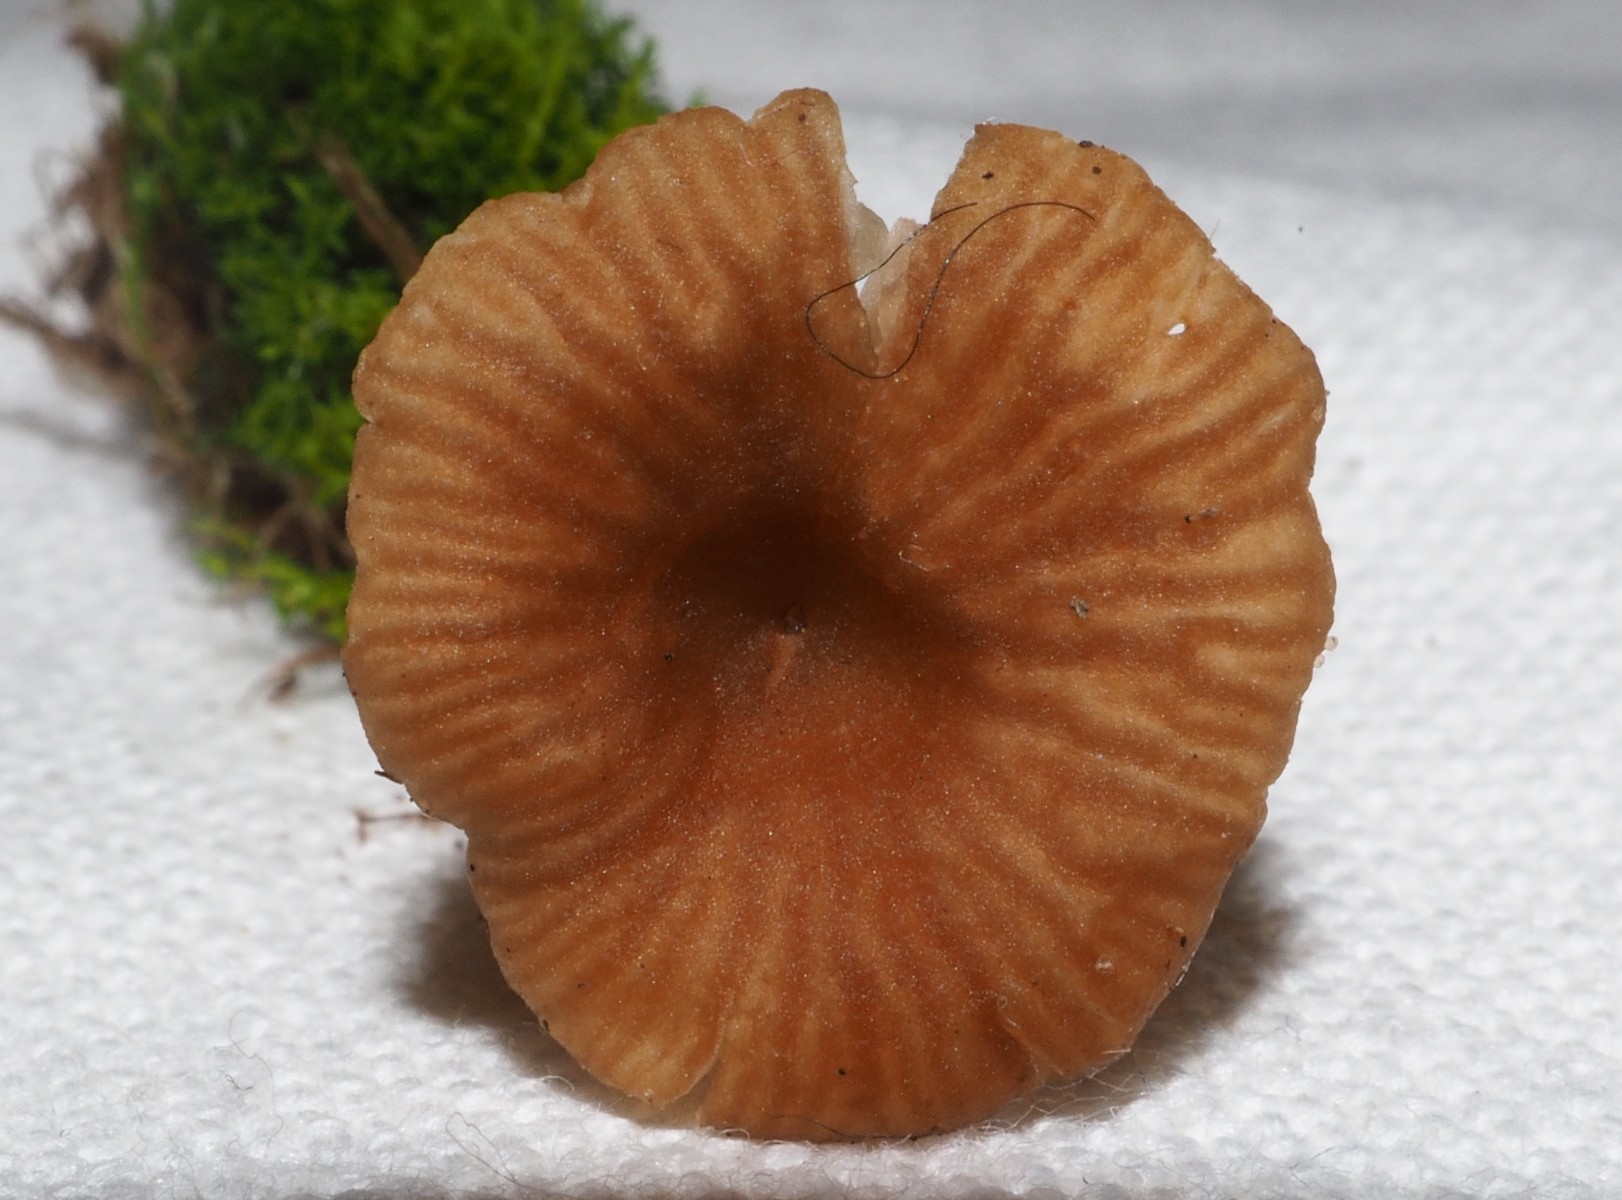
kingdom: Fungi
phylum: Basidiomycota
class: Agaricomycetes
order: Agaricales
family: Tricholomataceae
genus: Omphalina
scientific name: Omphalina pyxidata
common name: rødbrun navlehat
